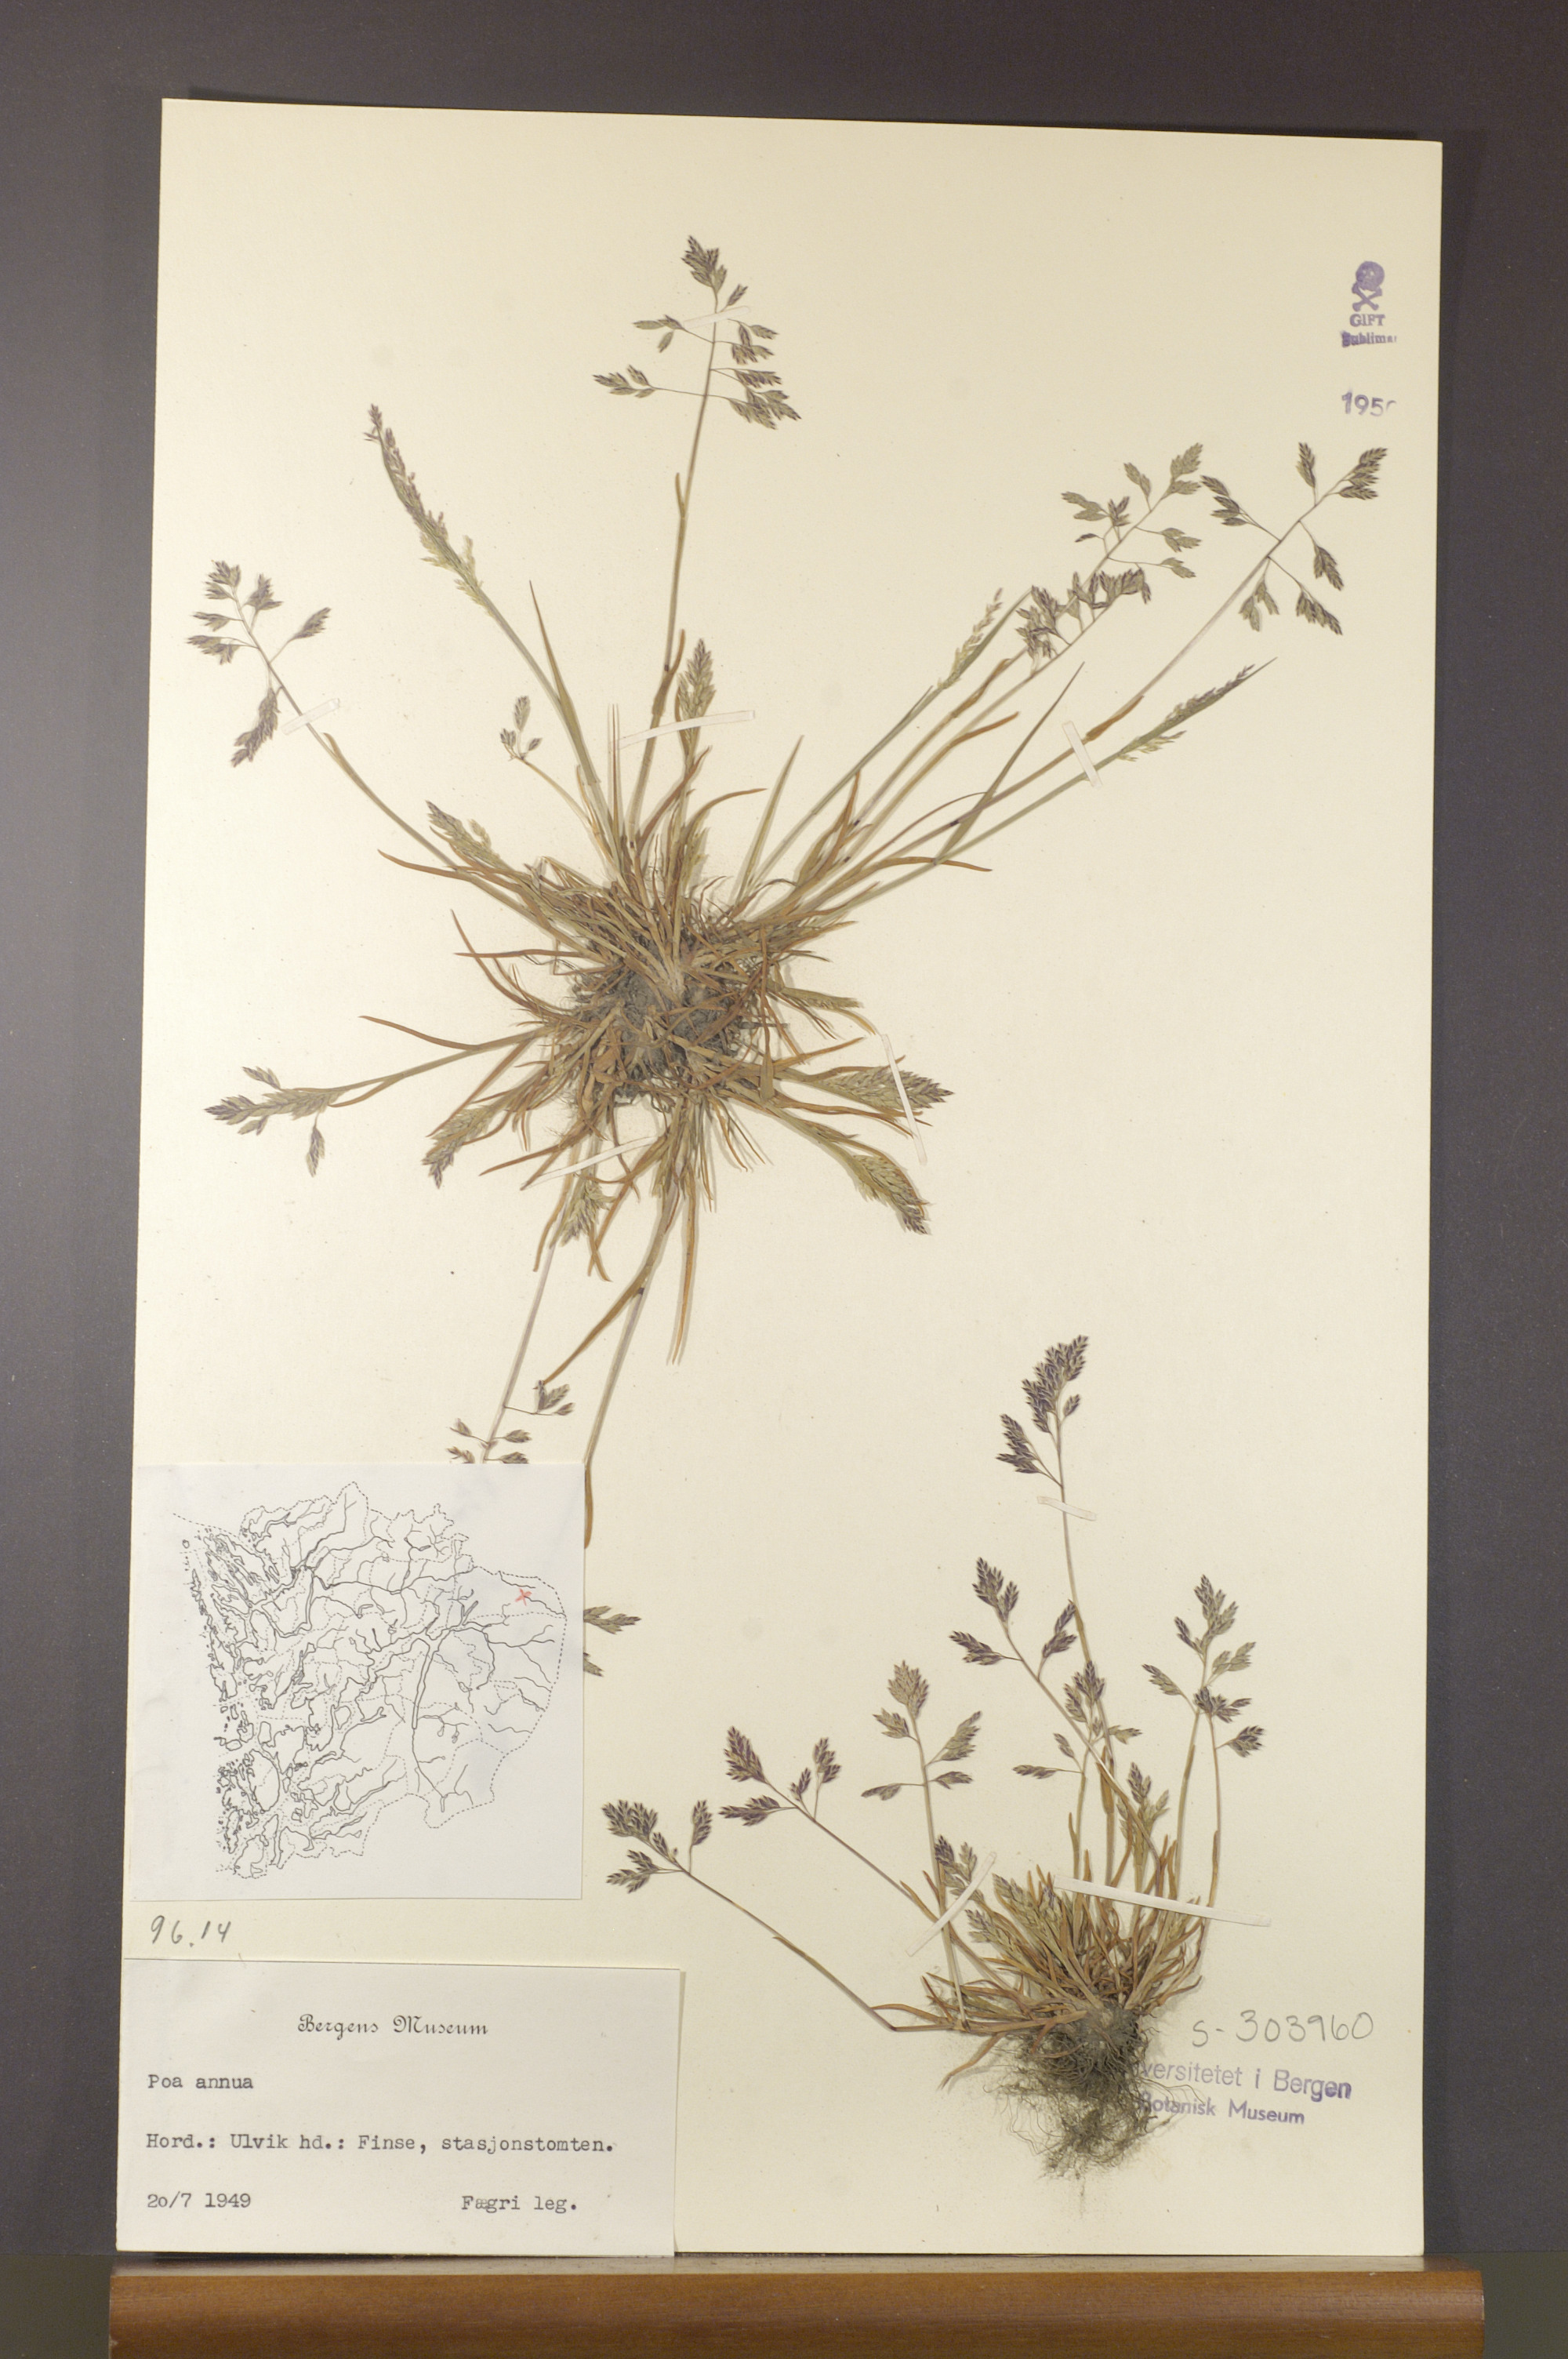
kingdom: Plantae
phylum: Tracheophyta
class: Liliopsida
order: Poales
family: Poaceae
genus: Poa
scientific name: Poa annua
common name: Annual bluegrass
